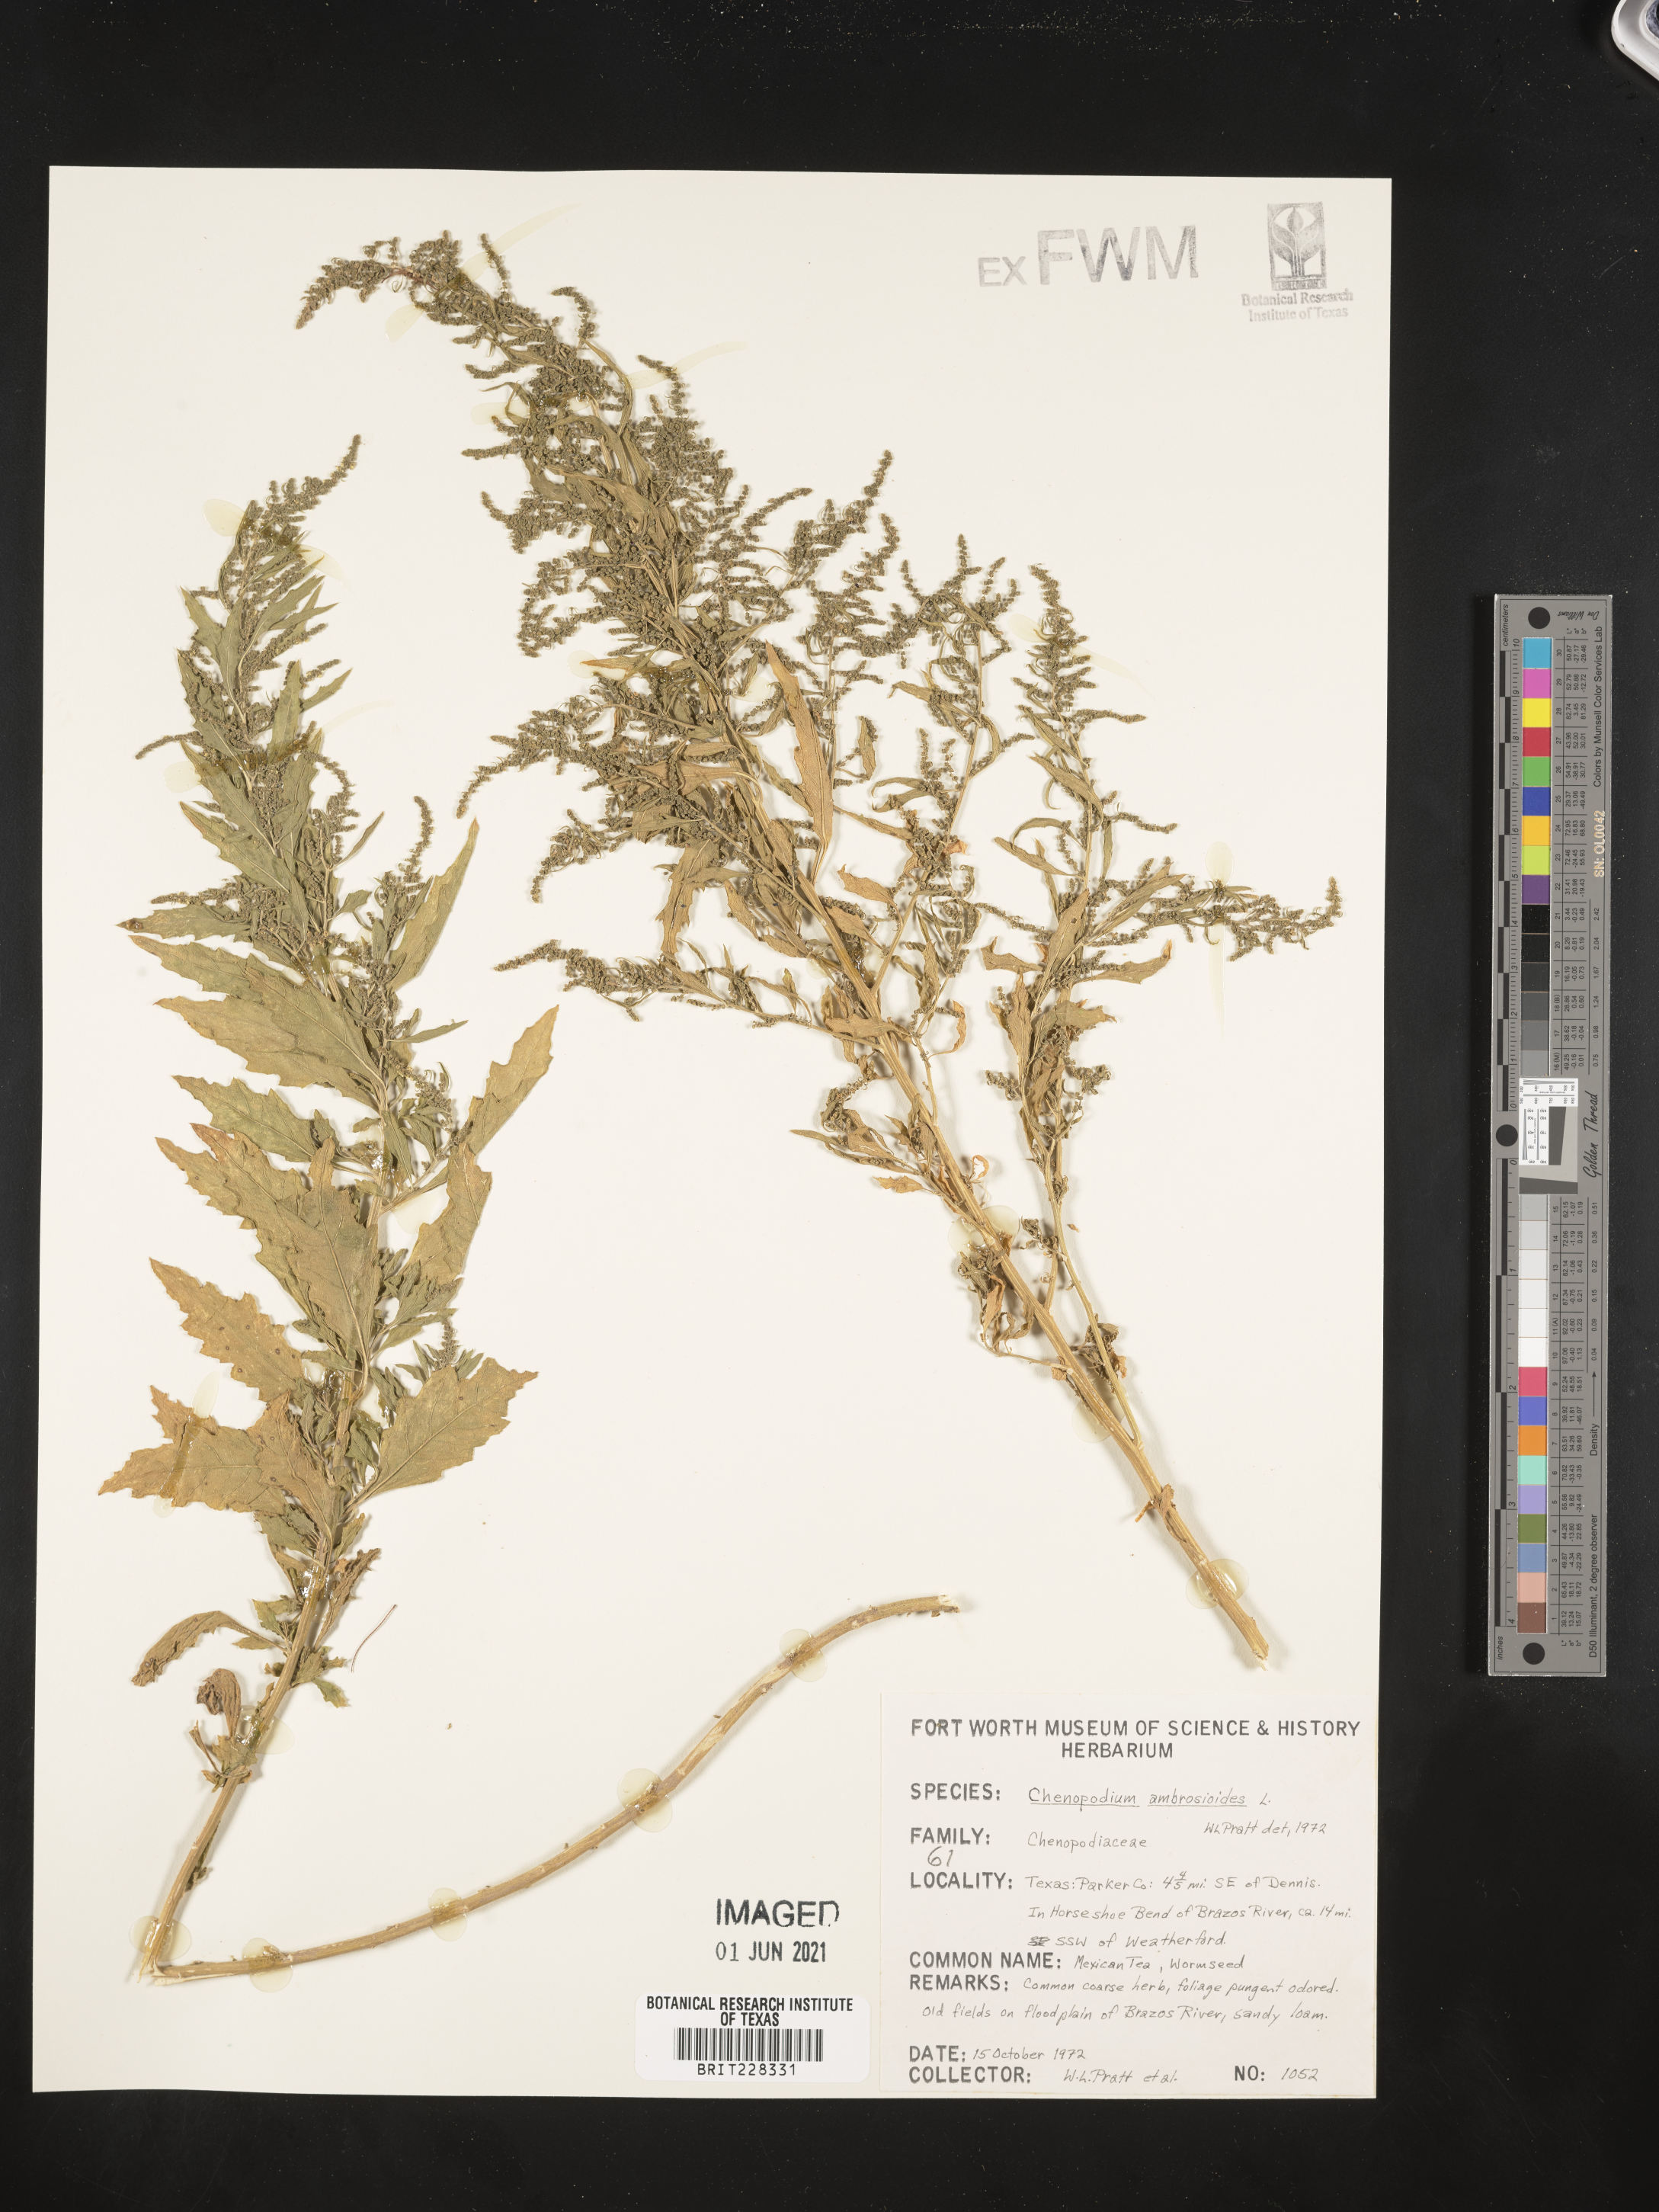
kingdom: Plantae
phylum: Tracheophyta
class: Magnoliopsida
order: Caryophyllales
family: Amaranthaceae
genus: Dysphania
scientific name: Dysphania ambrosioides
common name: Wormseed
